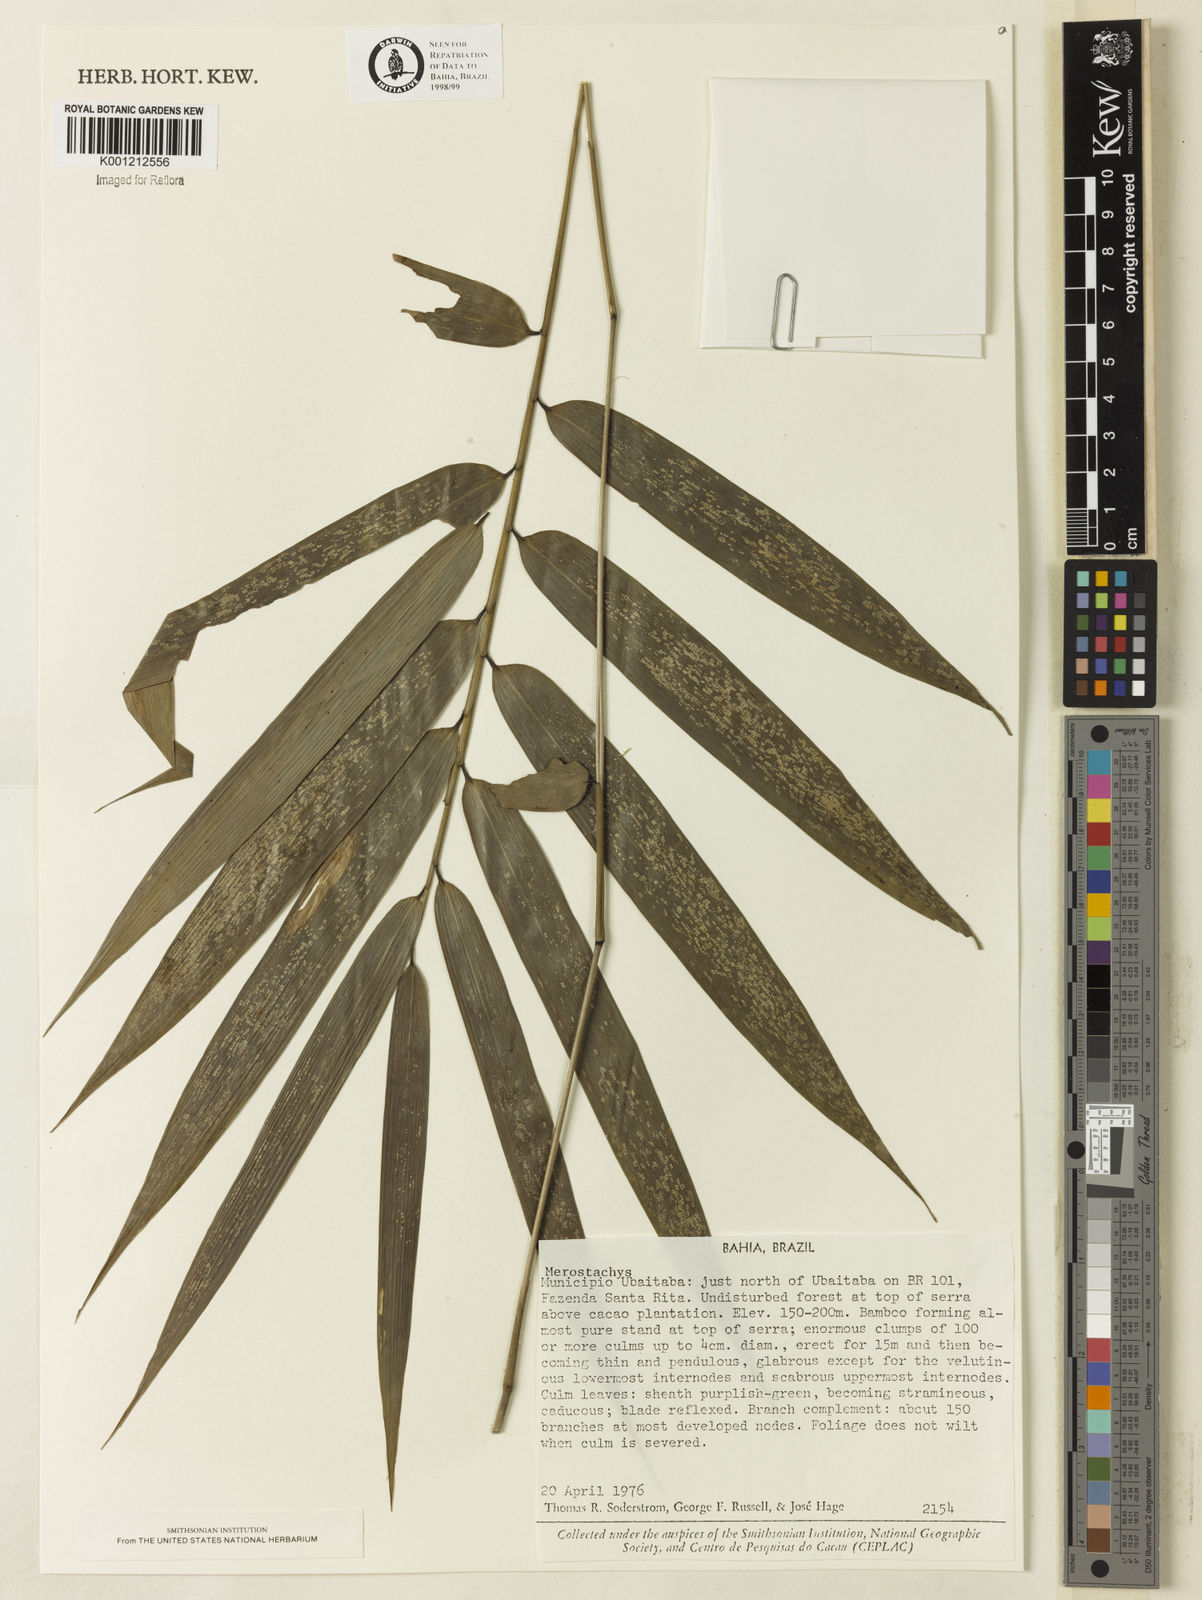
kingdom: Plantae
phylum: Tracheophyta
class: Liliopsida
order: Poales
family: Poaceae
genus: Merostachys
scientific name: Merostachys
